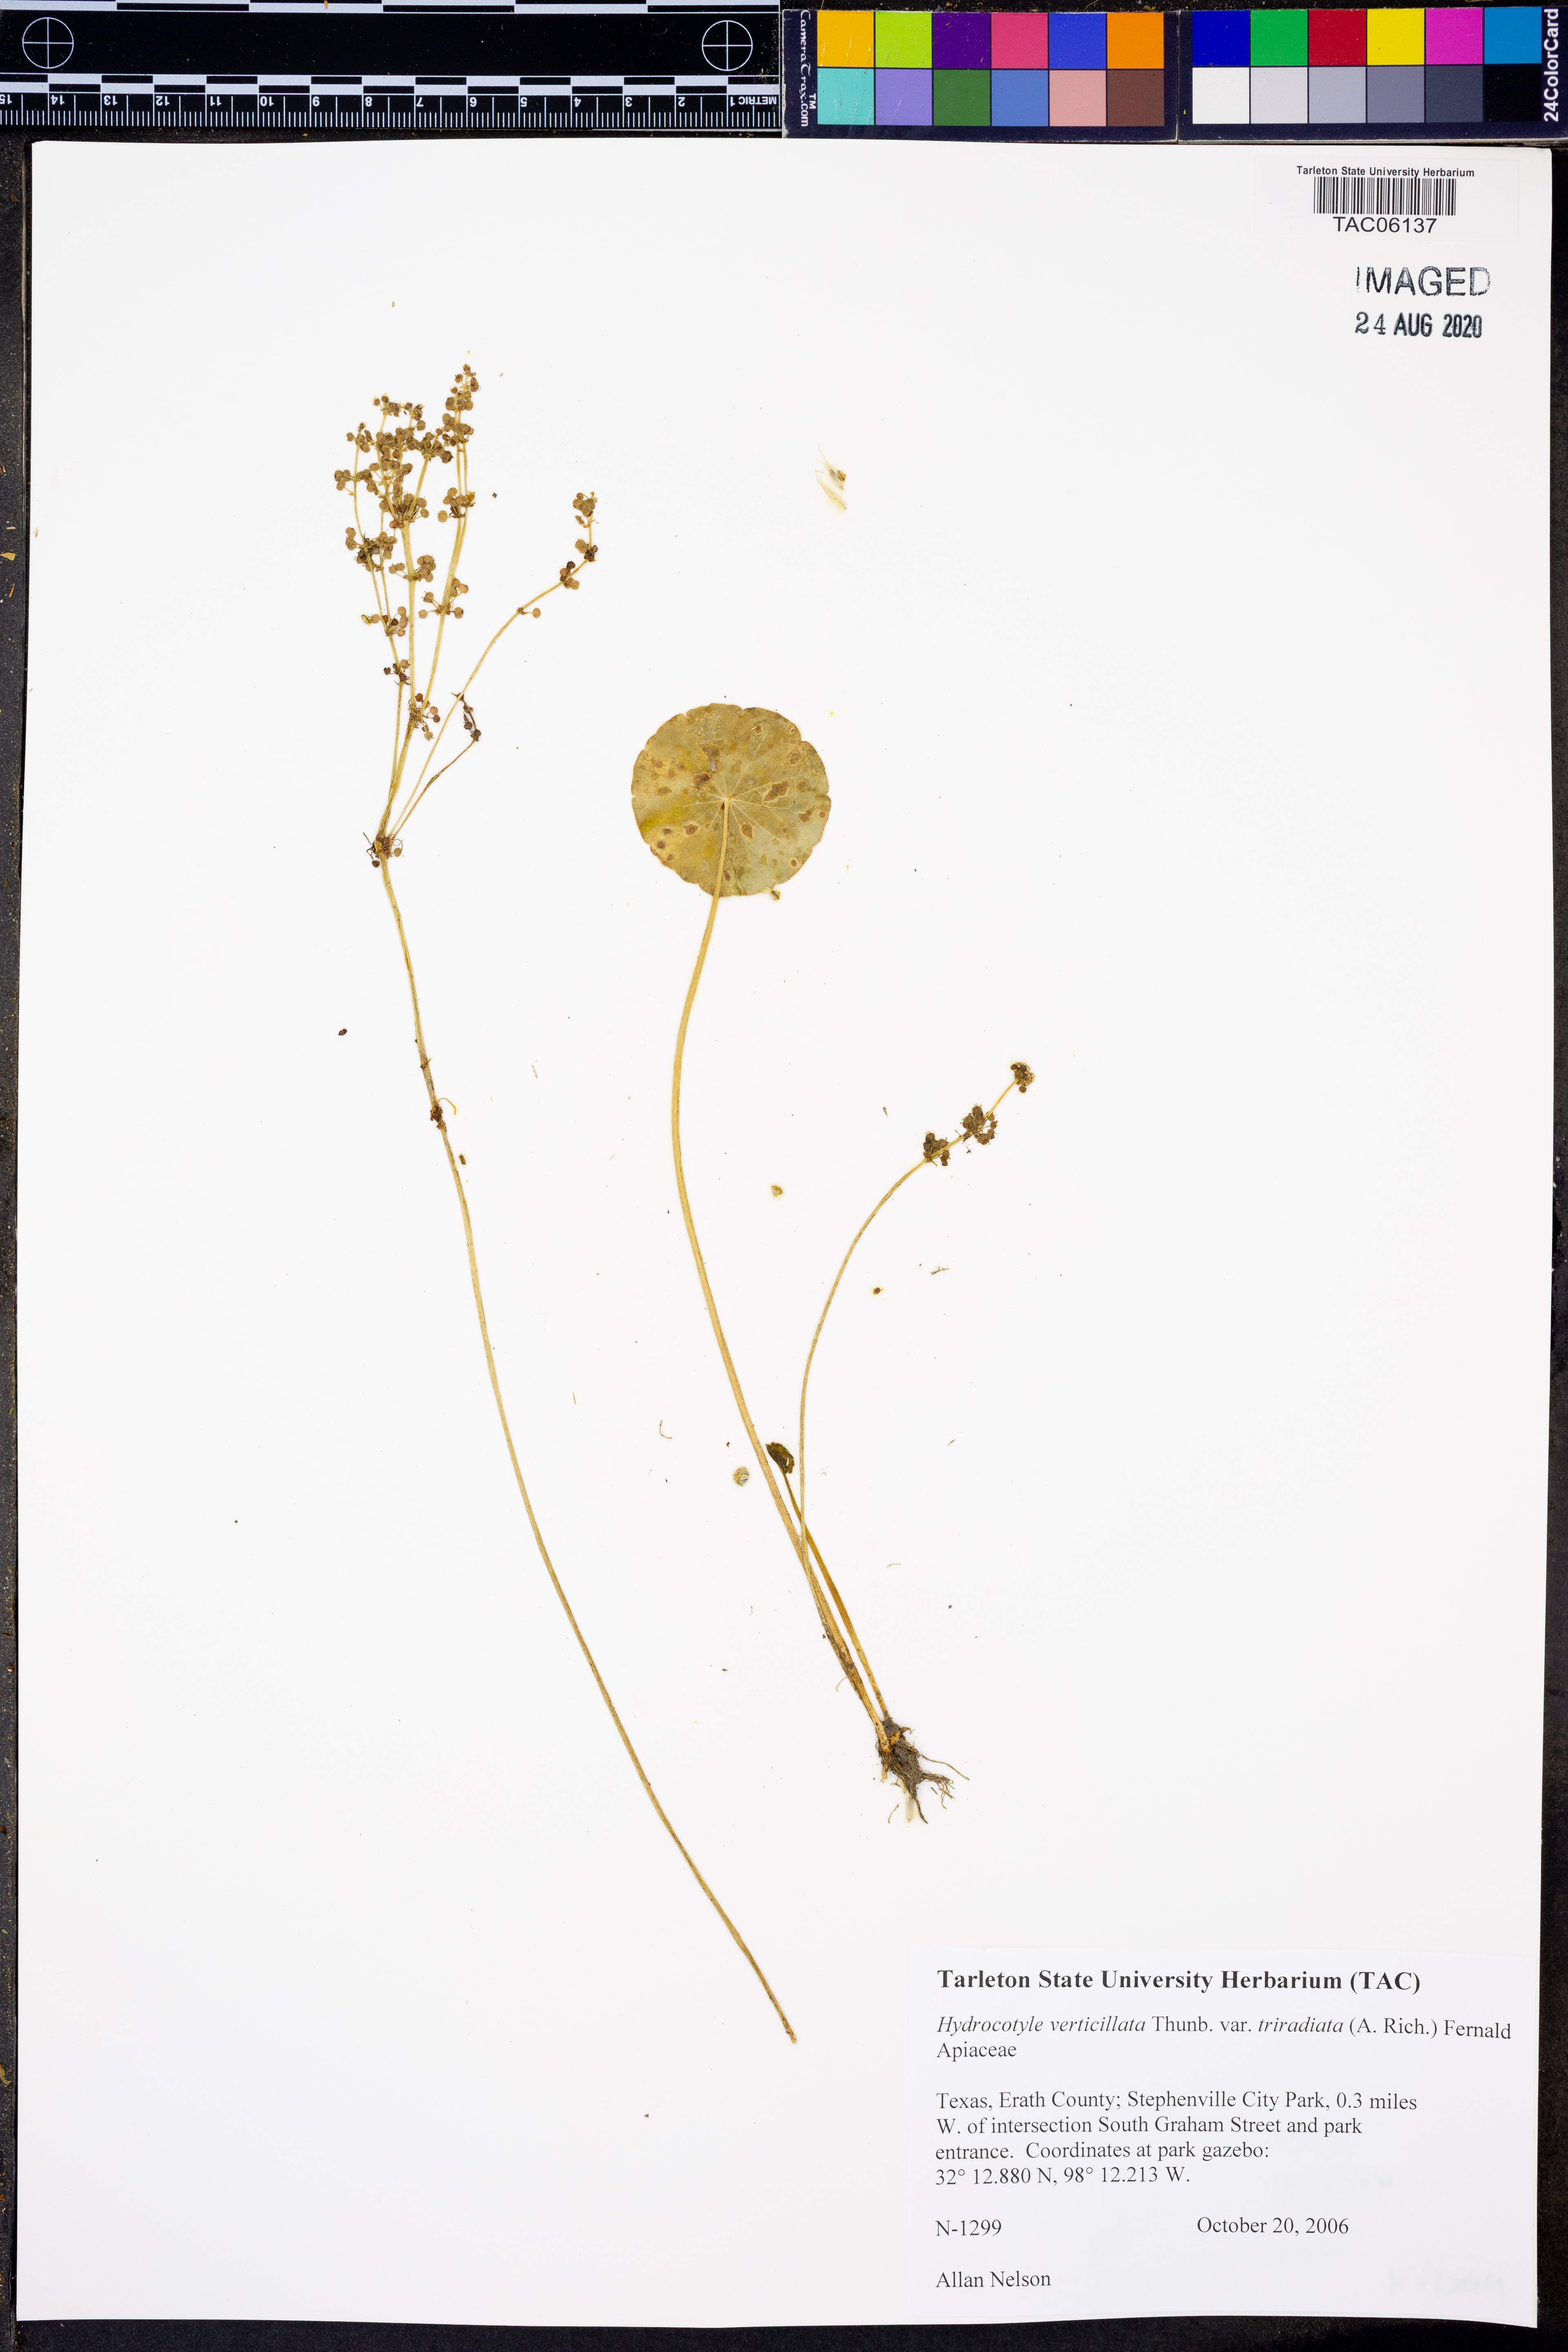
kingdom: Plantae
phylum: Tracheophyta
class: Magnoliopsida
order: Apiales
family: Araliaceae
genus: Hydrocotyle
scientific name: Hydrocotyle bonariensis
